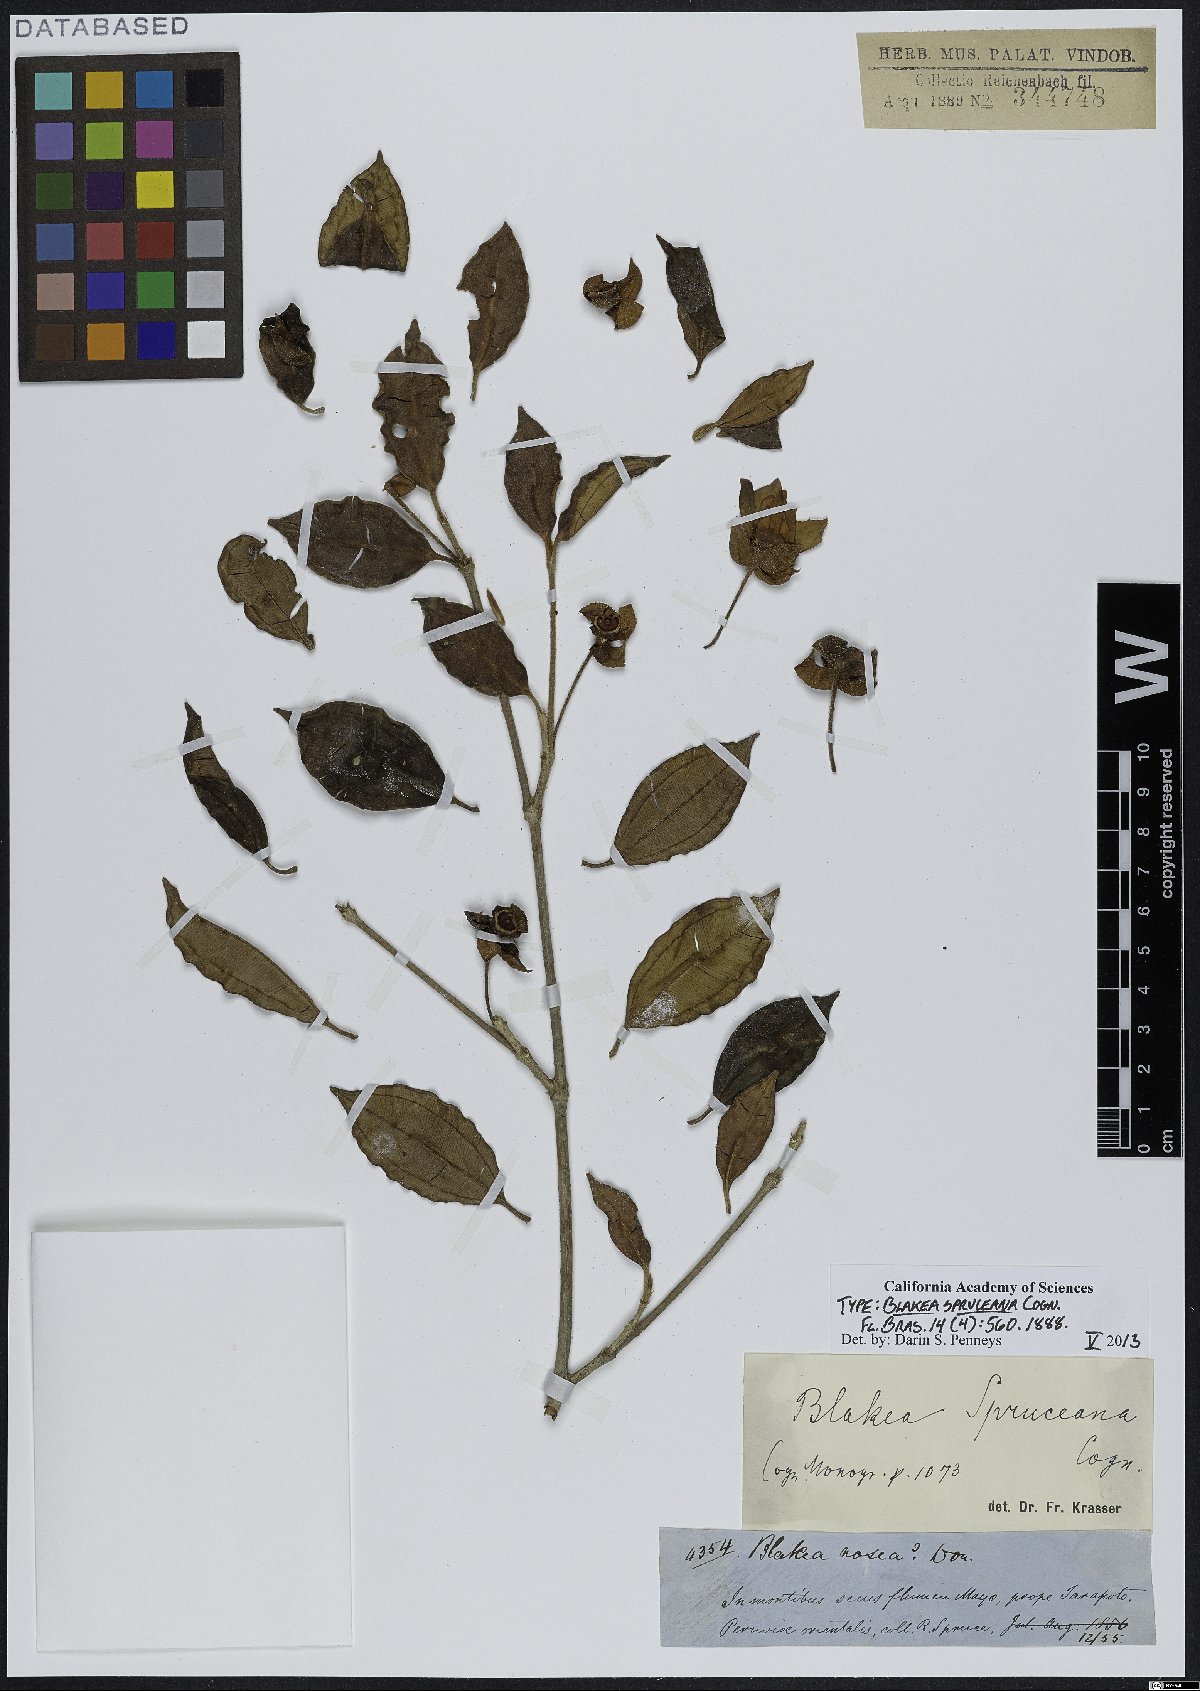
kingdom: Plantae
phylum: Tracheophyta
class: Magnoliopsida
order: Myrtales
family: Melastomataceae
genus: Blakea
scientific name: Blakea spruceana
